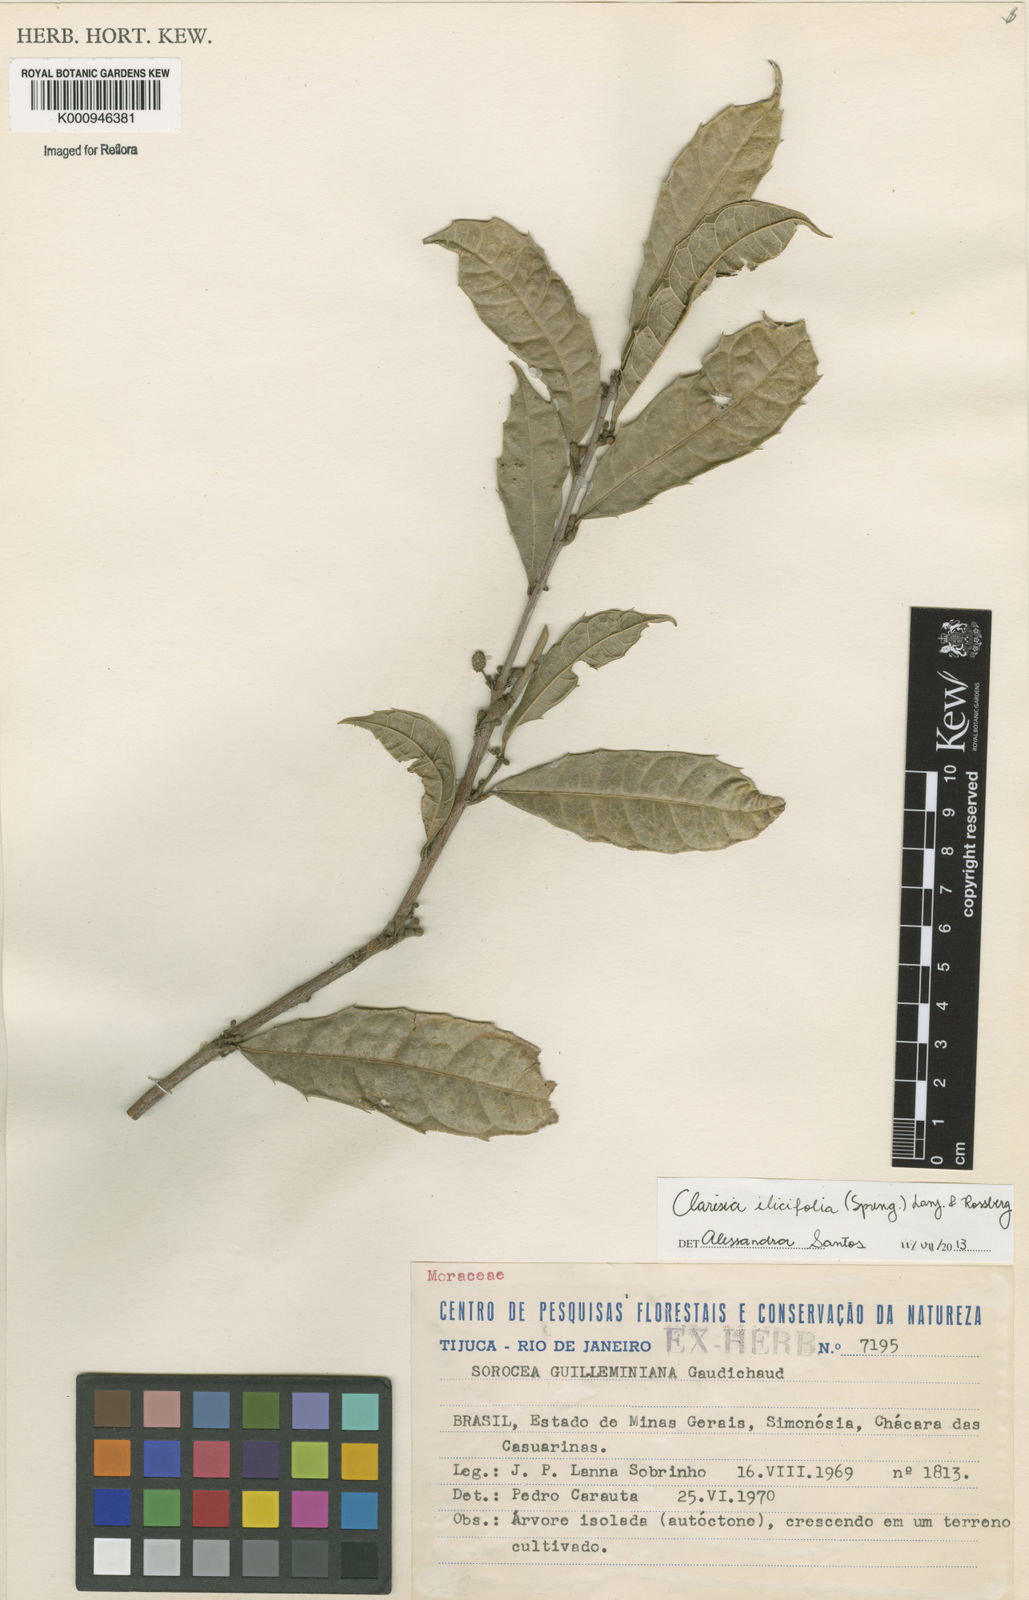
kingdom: Plantae
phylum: Tracheophyta
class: Magnoliopsida
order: Rosales
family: Moraceae
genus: Clarisia
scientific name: Clarisia ilicifolia
